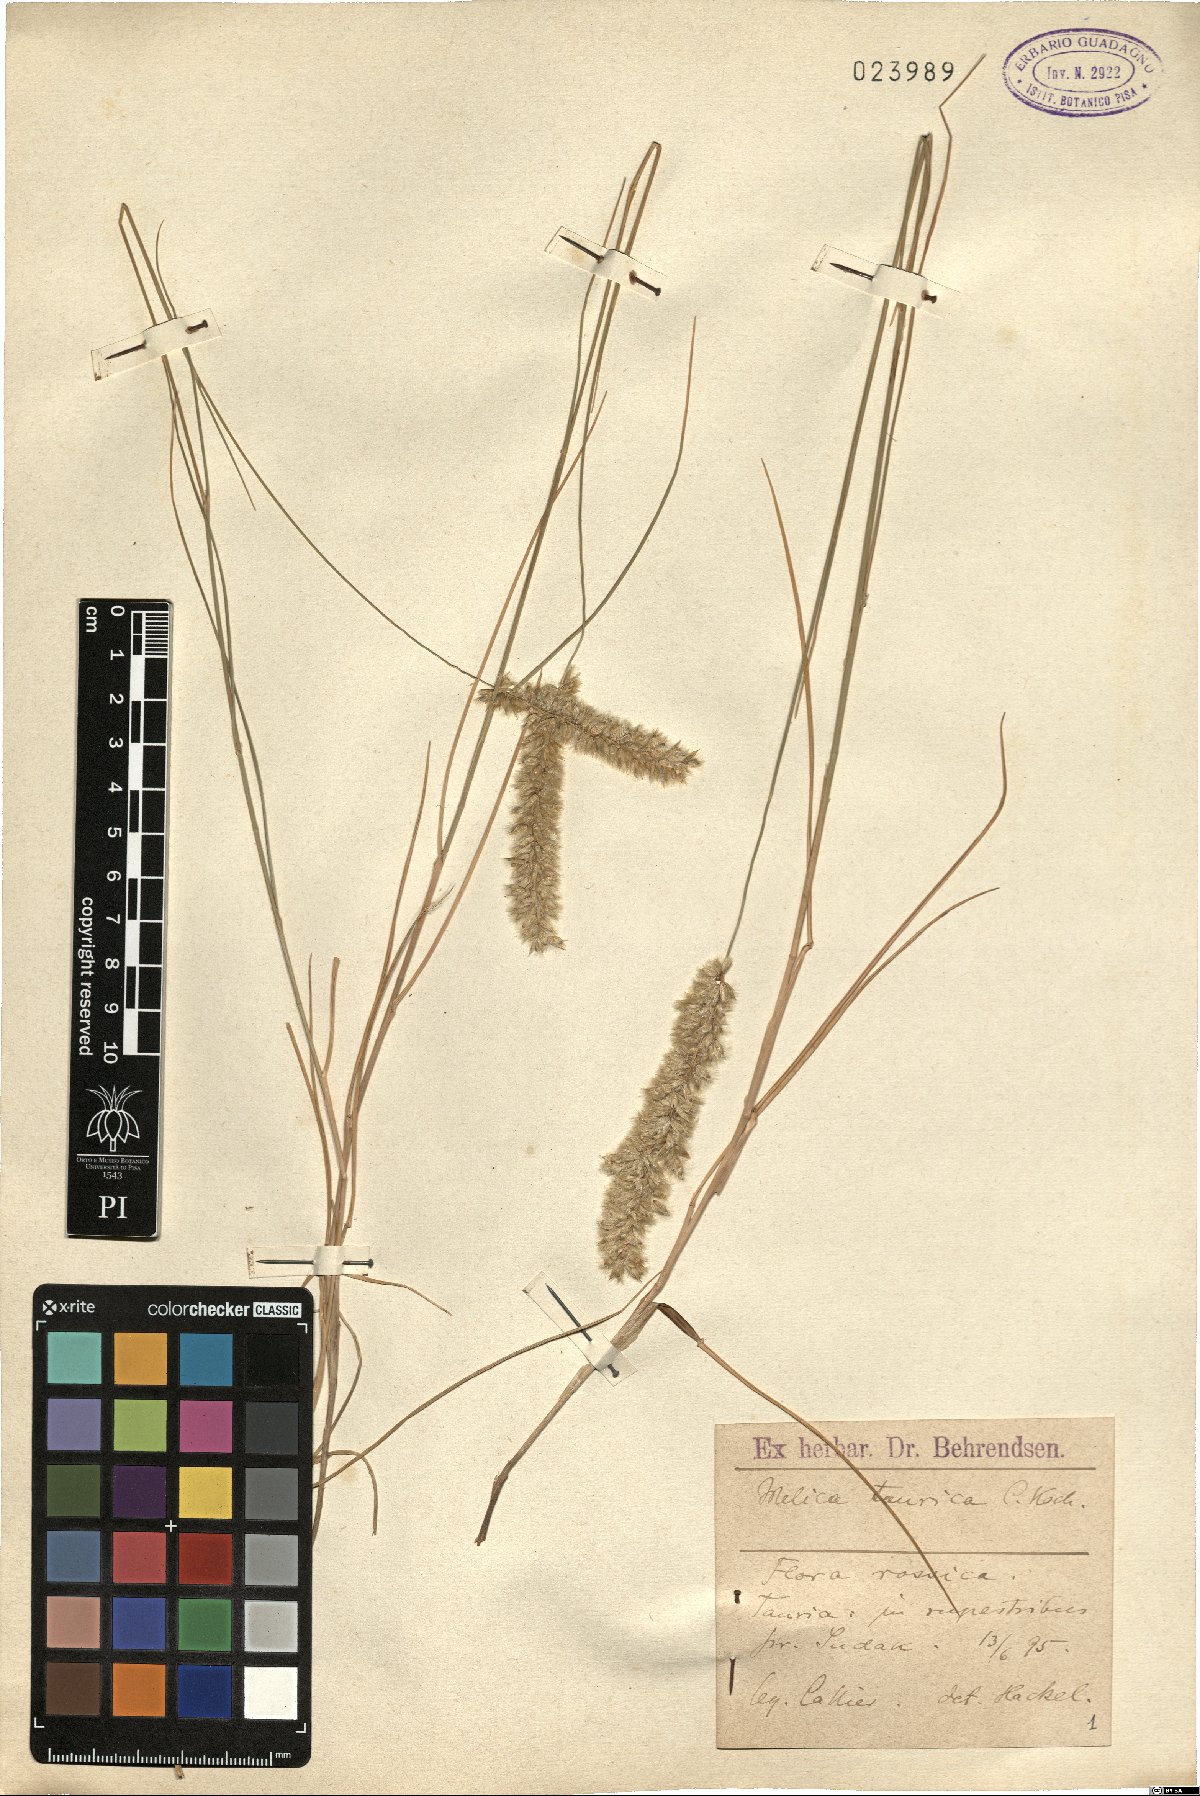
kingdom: Plantae
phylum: Tracheophyta
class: Liliopsida
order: Poales
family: Poaceae
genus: Melica
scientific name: Melica ciliata
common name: Hairy melicgrass
